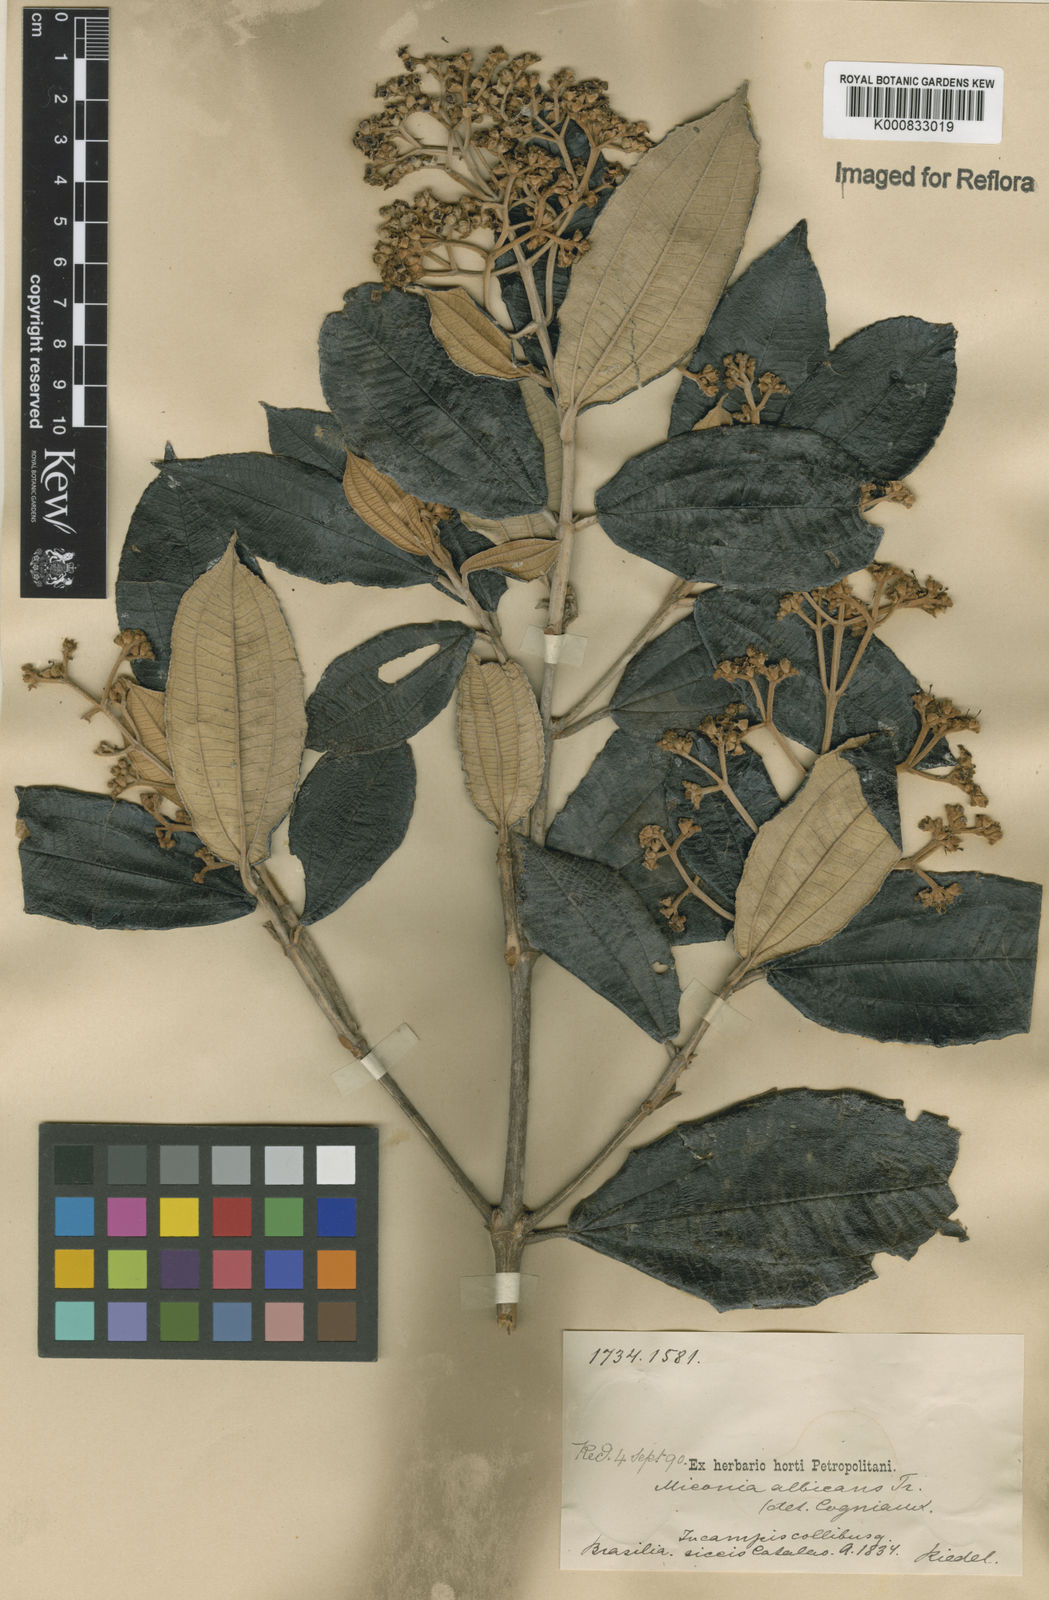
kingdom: Plantae
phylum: Tracheophyta
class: Magnoliopsida
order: Myrtales
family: Melastomataceae
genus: Miconia
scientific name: Miconia albicans
